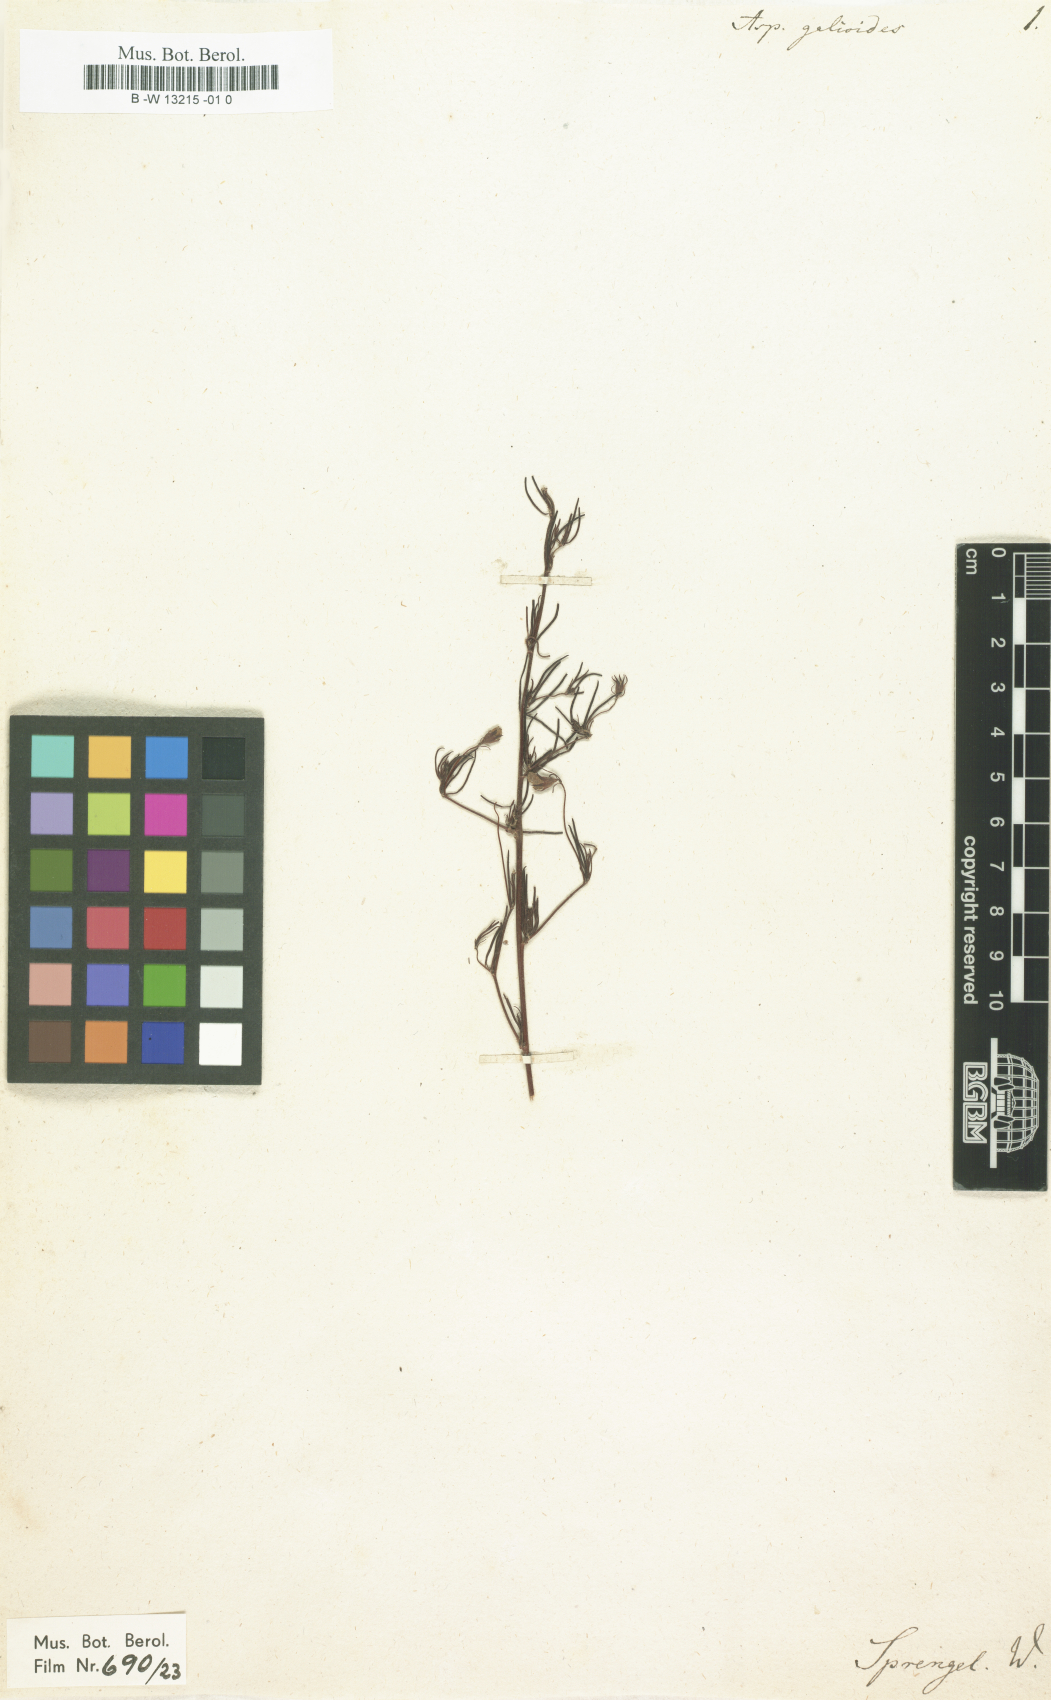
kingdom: Plantae
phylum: Tracheophyta
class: Magnoliopsida
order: Fabales
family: Fabaceae
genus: Aspalathus
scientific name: Aspalathus
